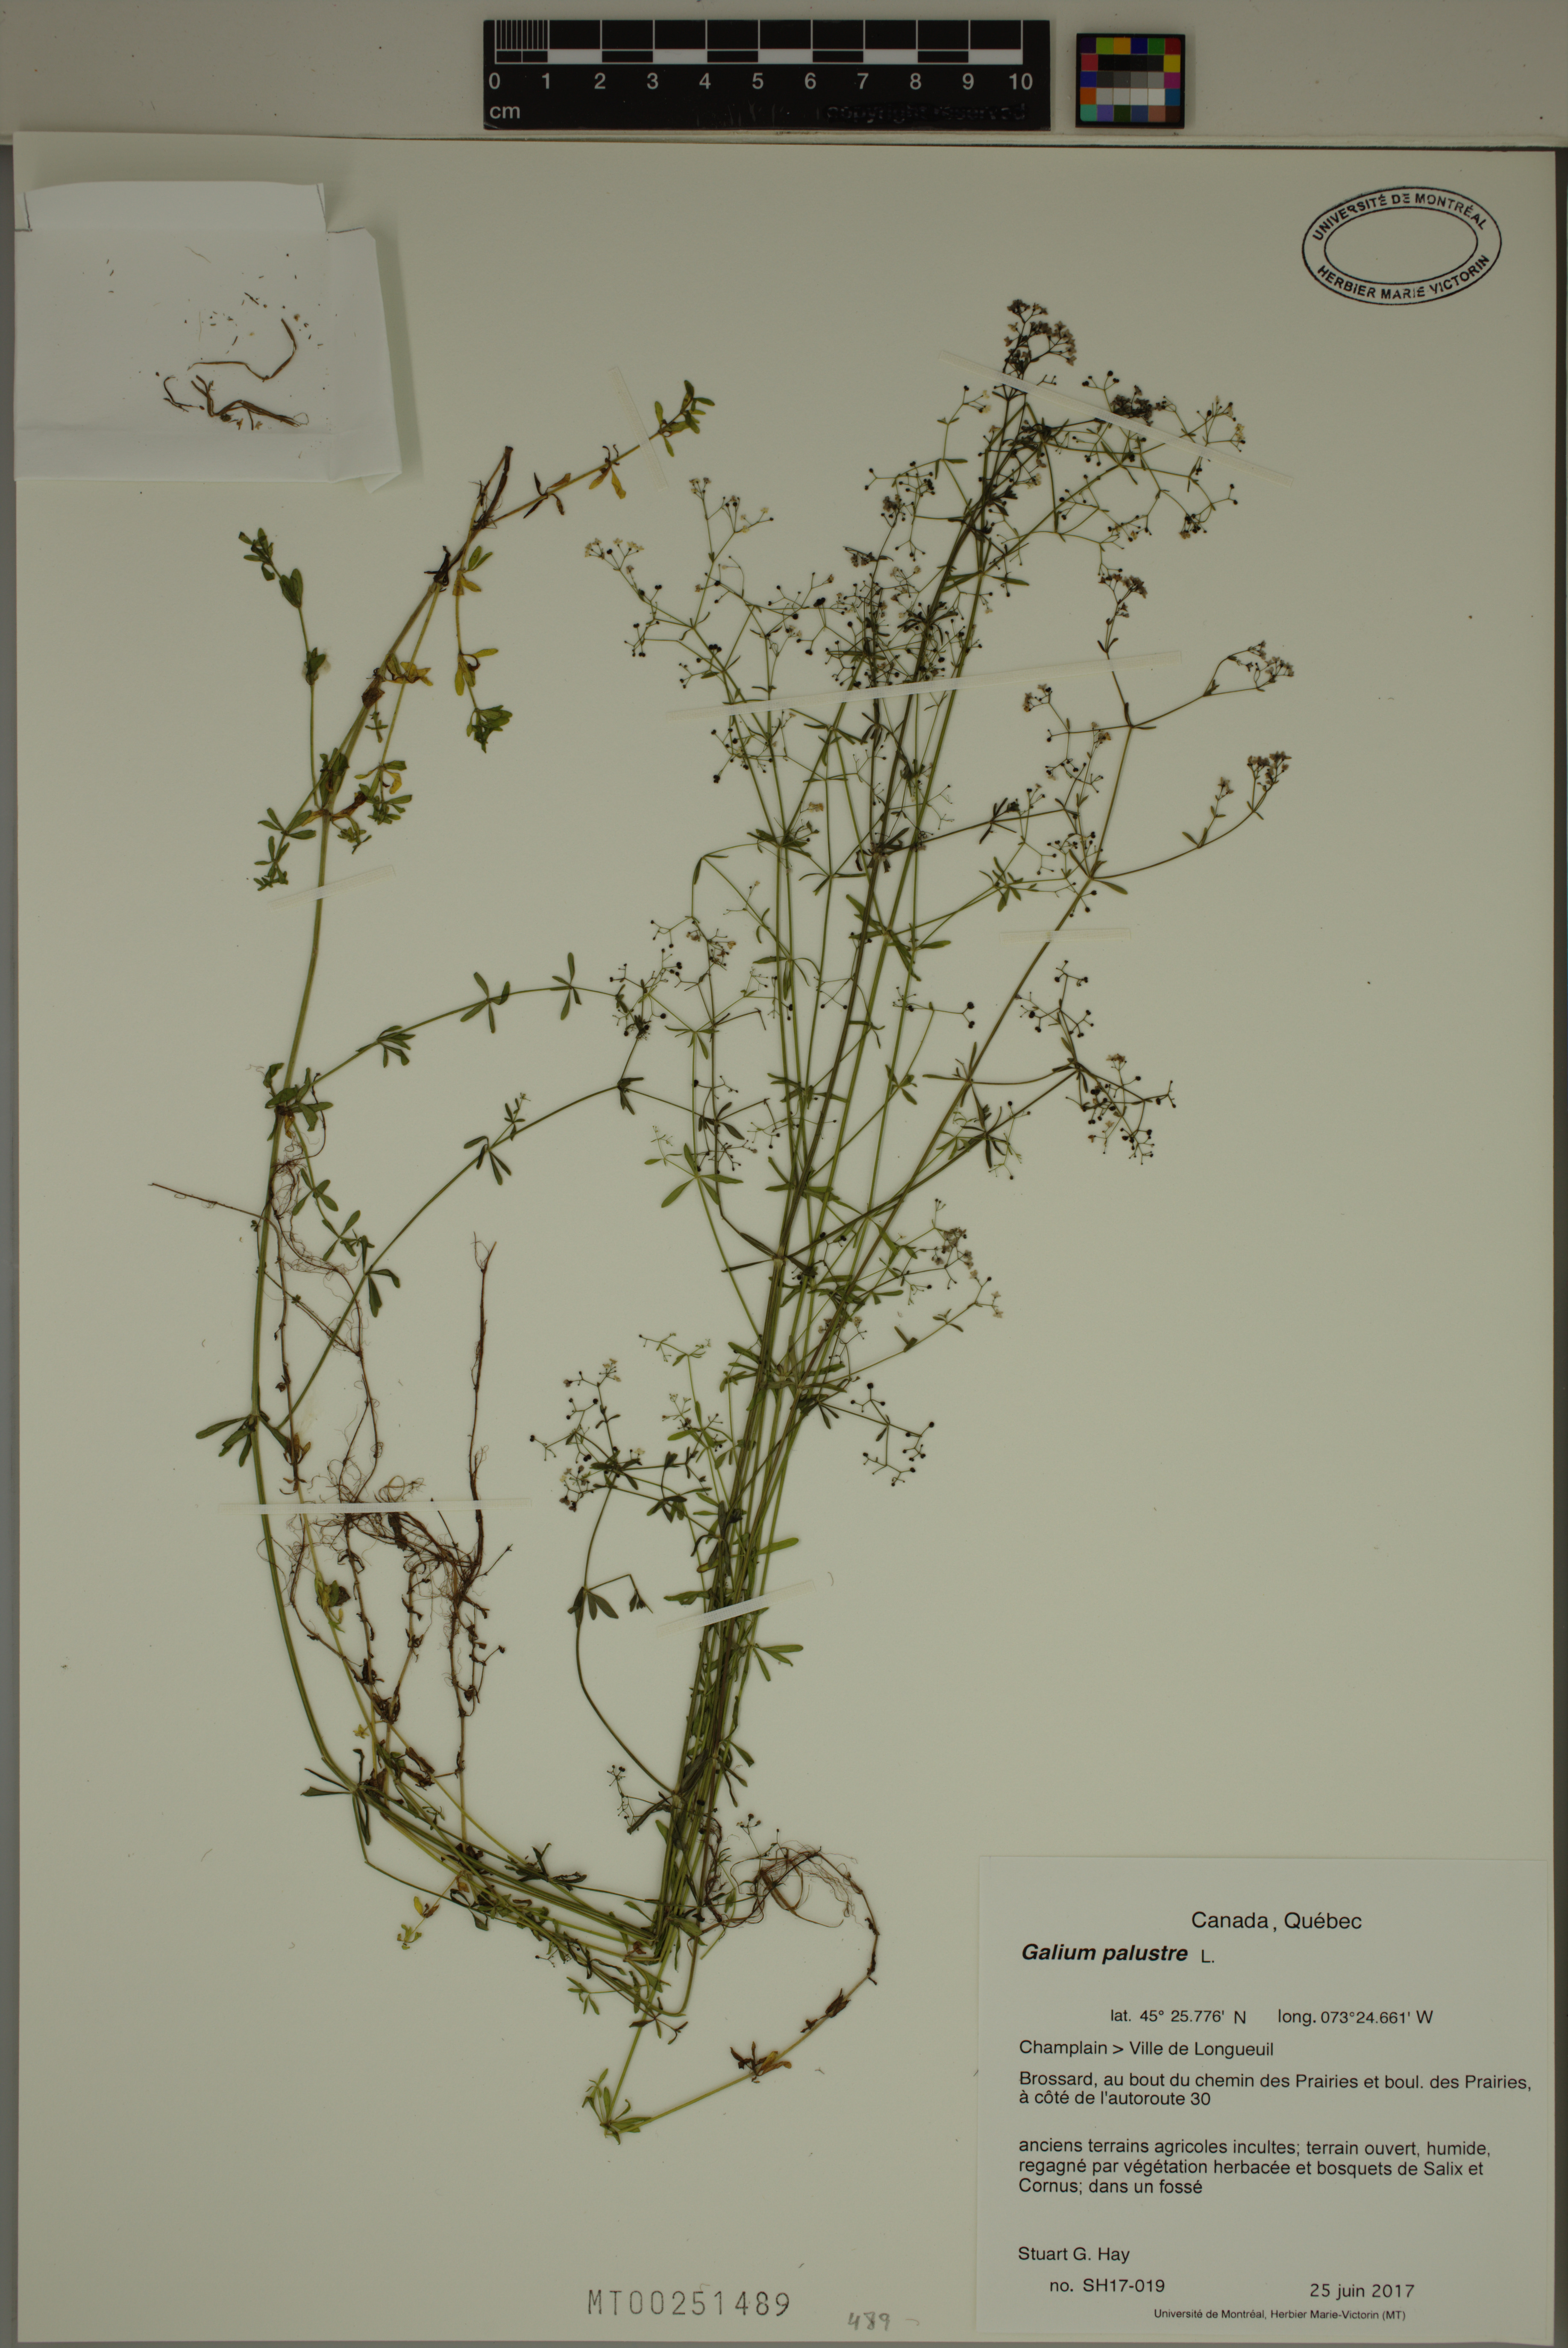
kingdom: Plantae
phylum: Tracheophyta
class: Magnoliopsida
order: Gentianales
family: Rubiaceae
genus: Galium
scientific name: Galium palustre
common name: Common marsh-bedstraw
